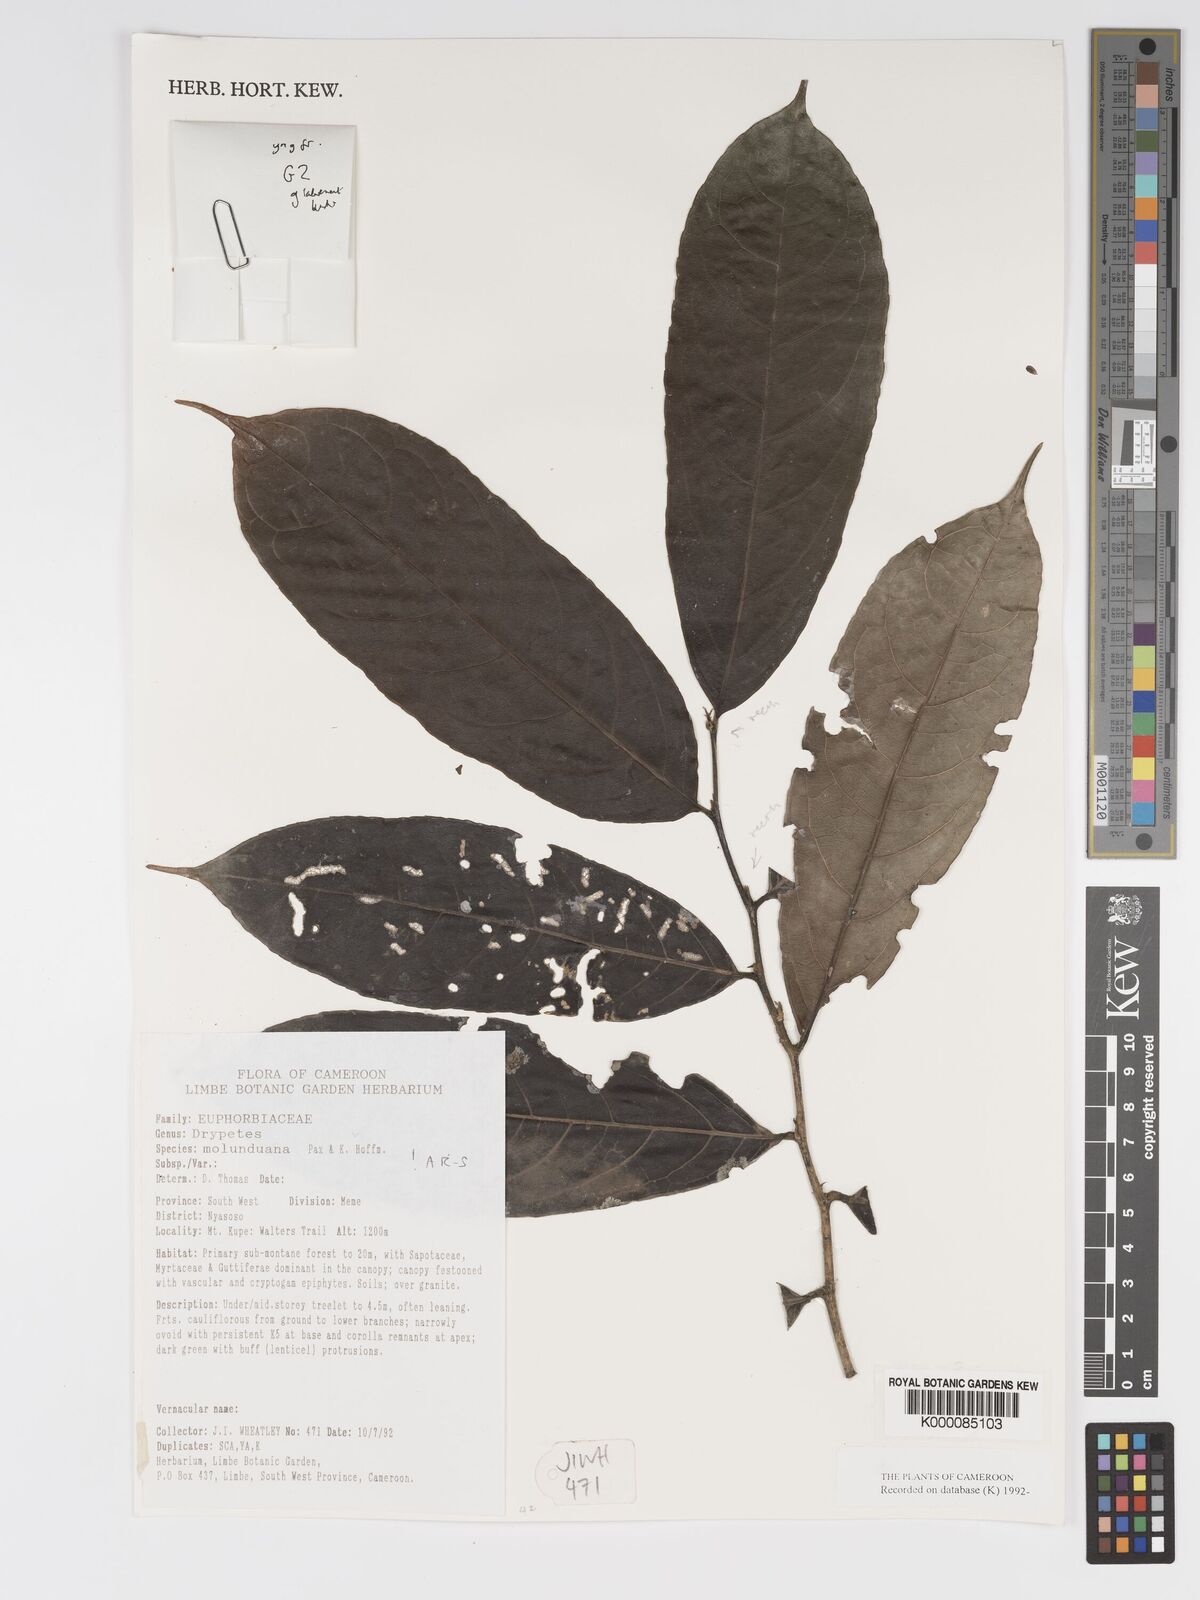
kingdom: Plantae
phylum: Tracheophyta
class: Magnoliopsida
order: Malpighiales
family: Putranjivaceae
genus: Drypetes
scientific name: Drypetes molunduana
